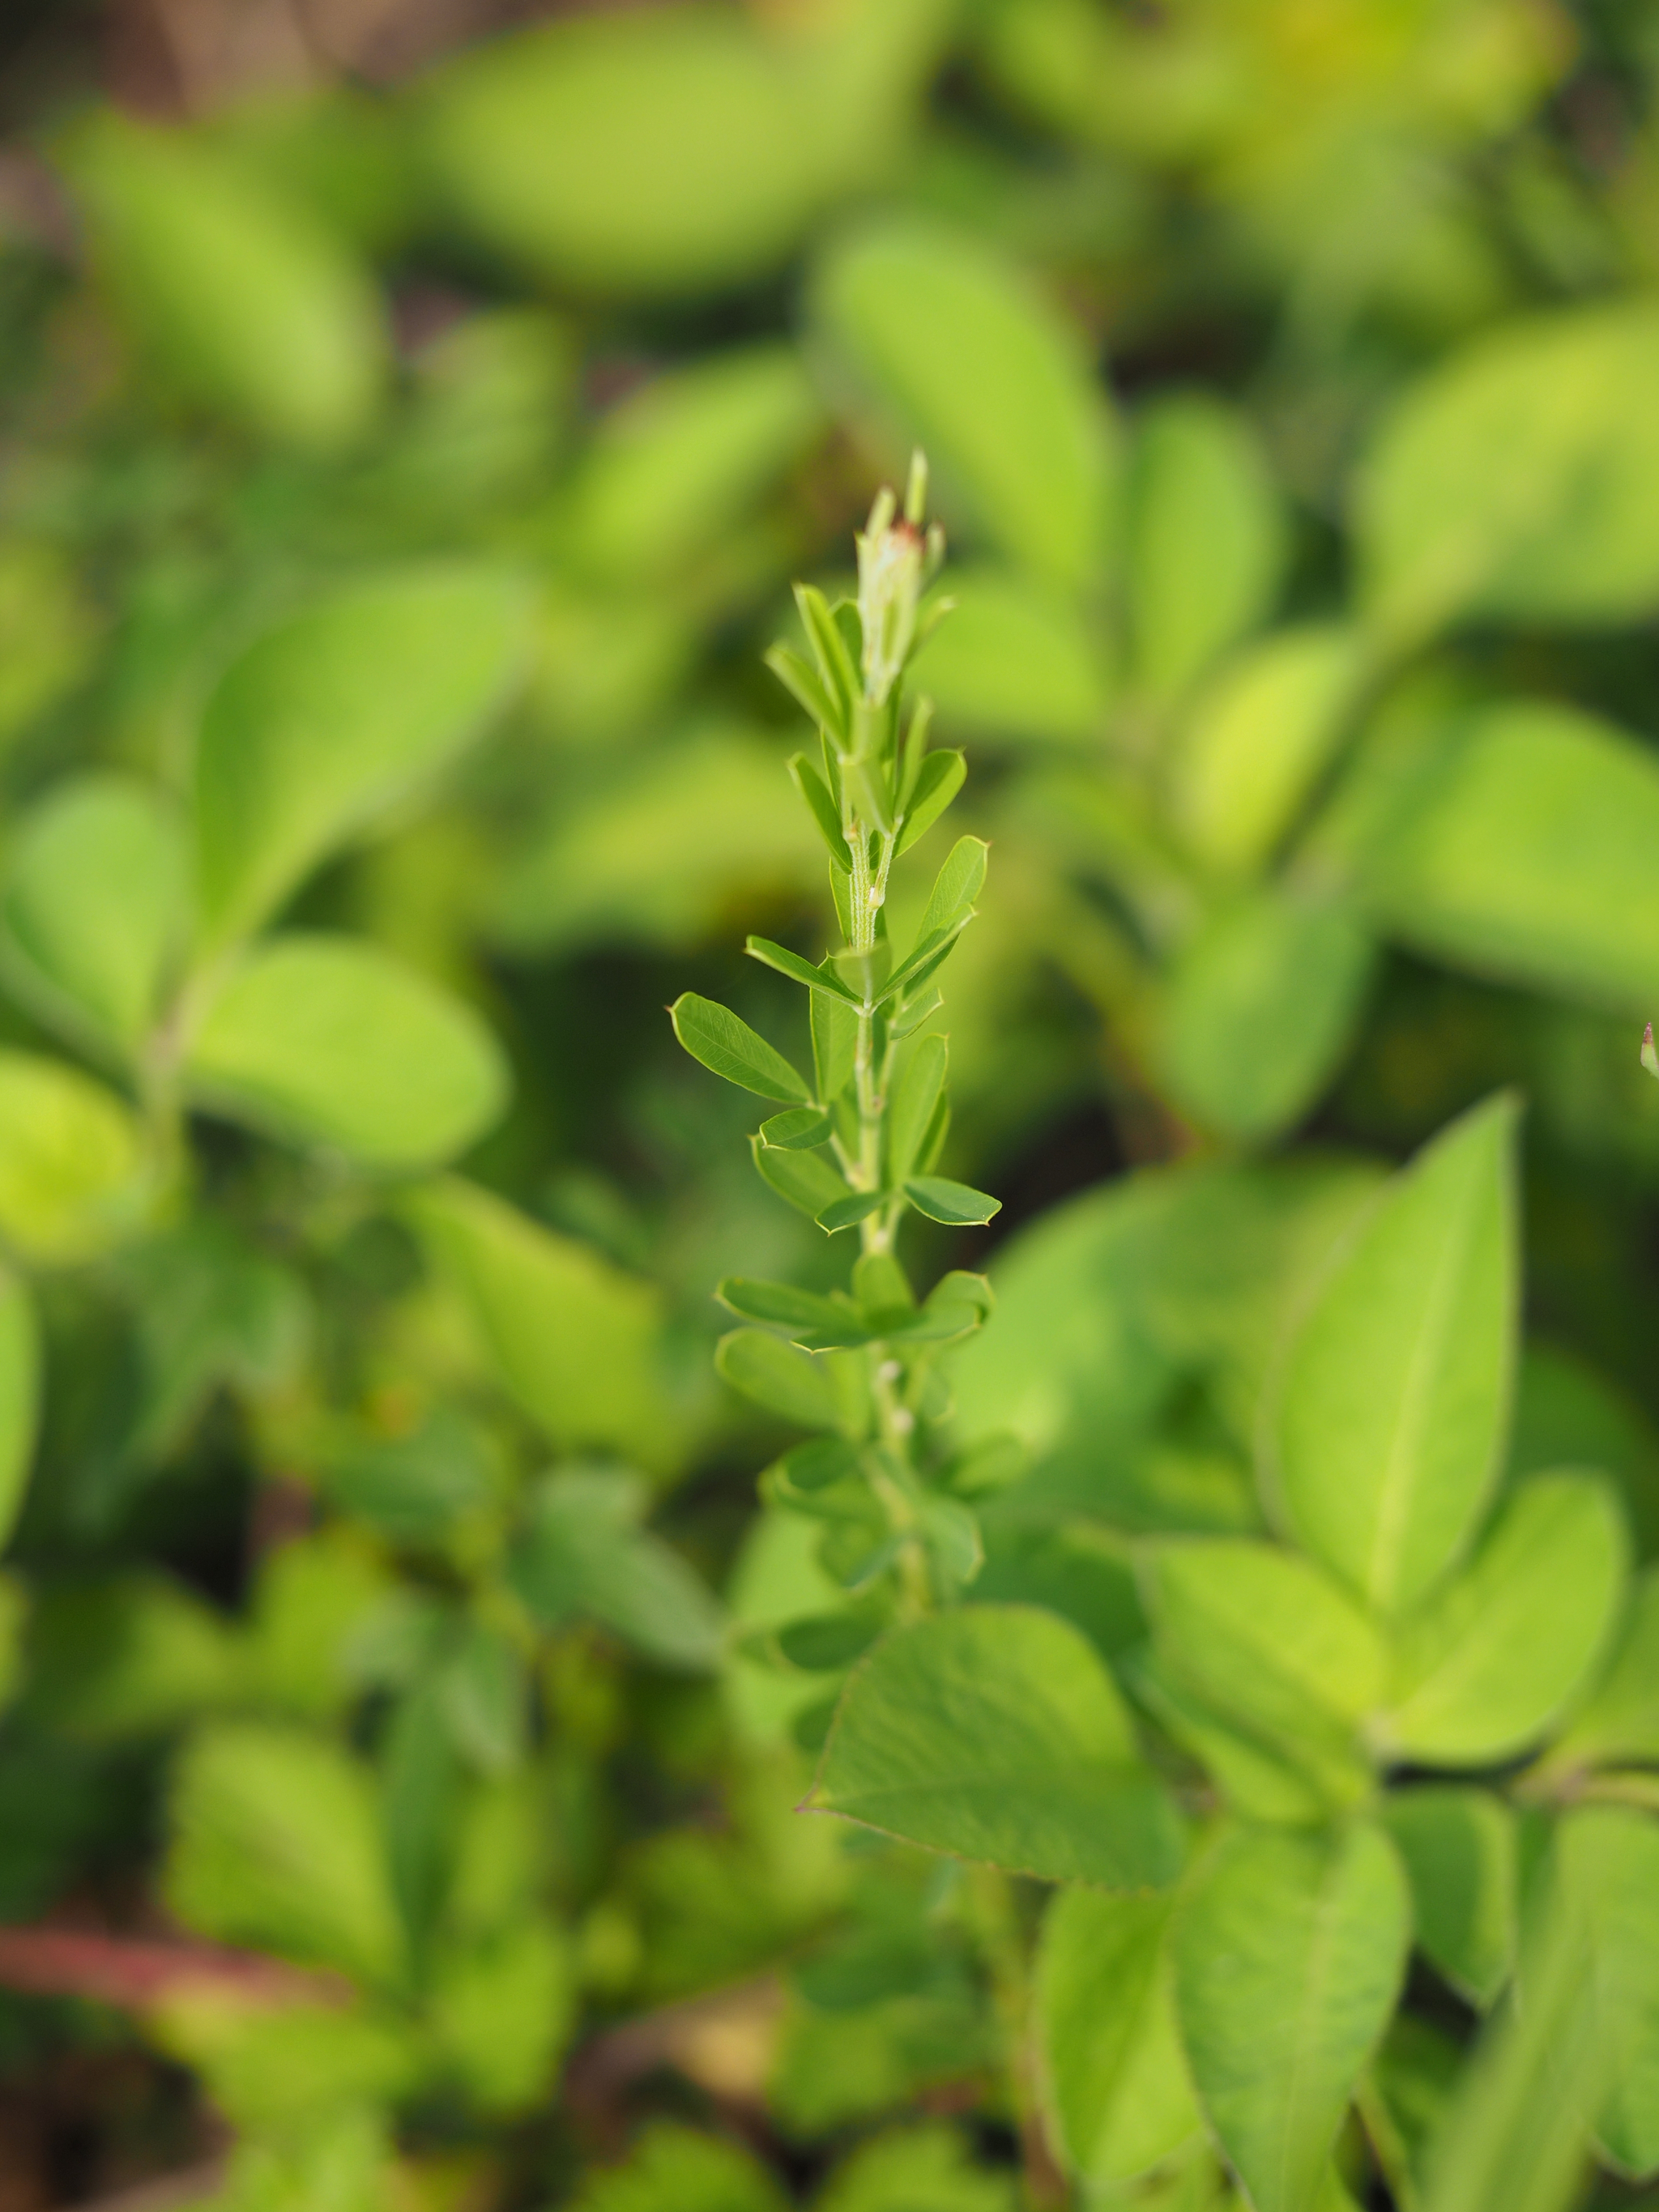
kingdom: Plantae
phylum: Tracheophyta
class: Magnoliopsida
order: Fabales
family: Fabaceae
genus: Lespedeza
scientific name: Lespedeza cuneata
